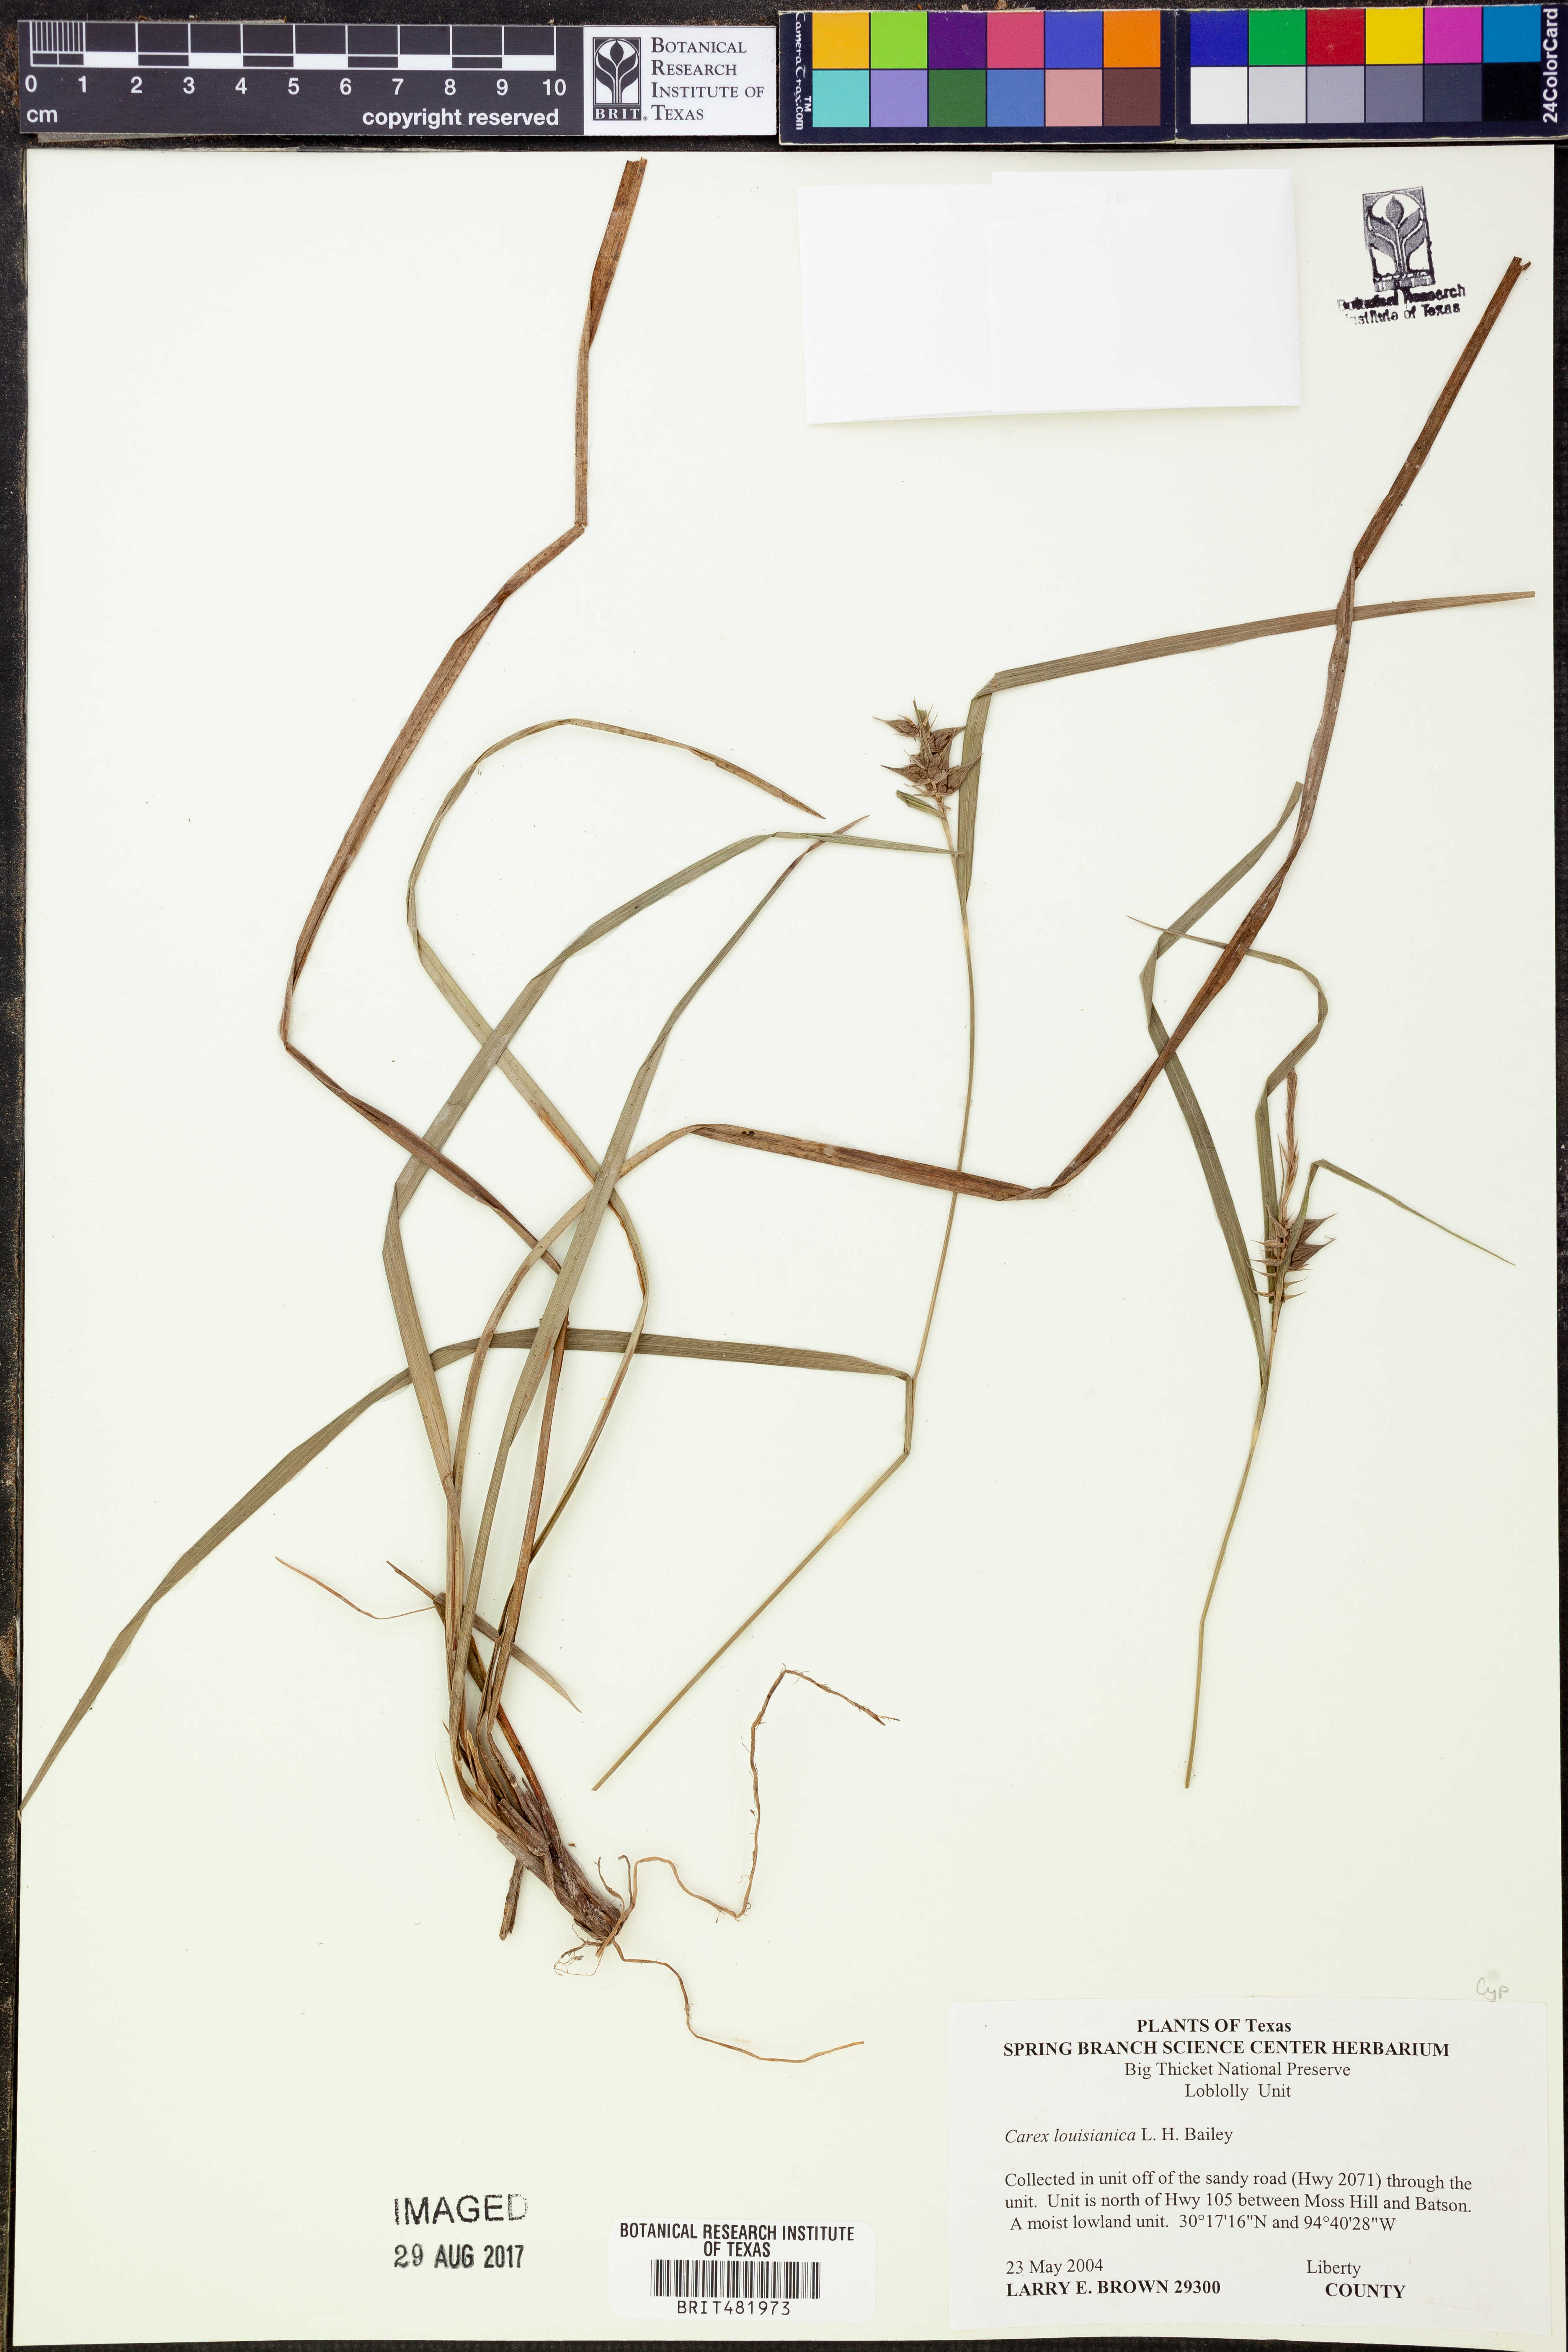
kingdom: Plantae
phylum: Tracheophyta
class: Liliopsida
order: Poales
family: Cyperaceae
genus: Carex
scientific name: Carex louisianica
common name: Louisiana sedge
